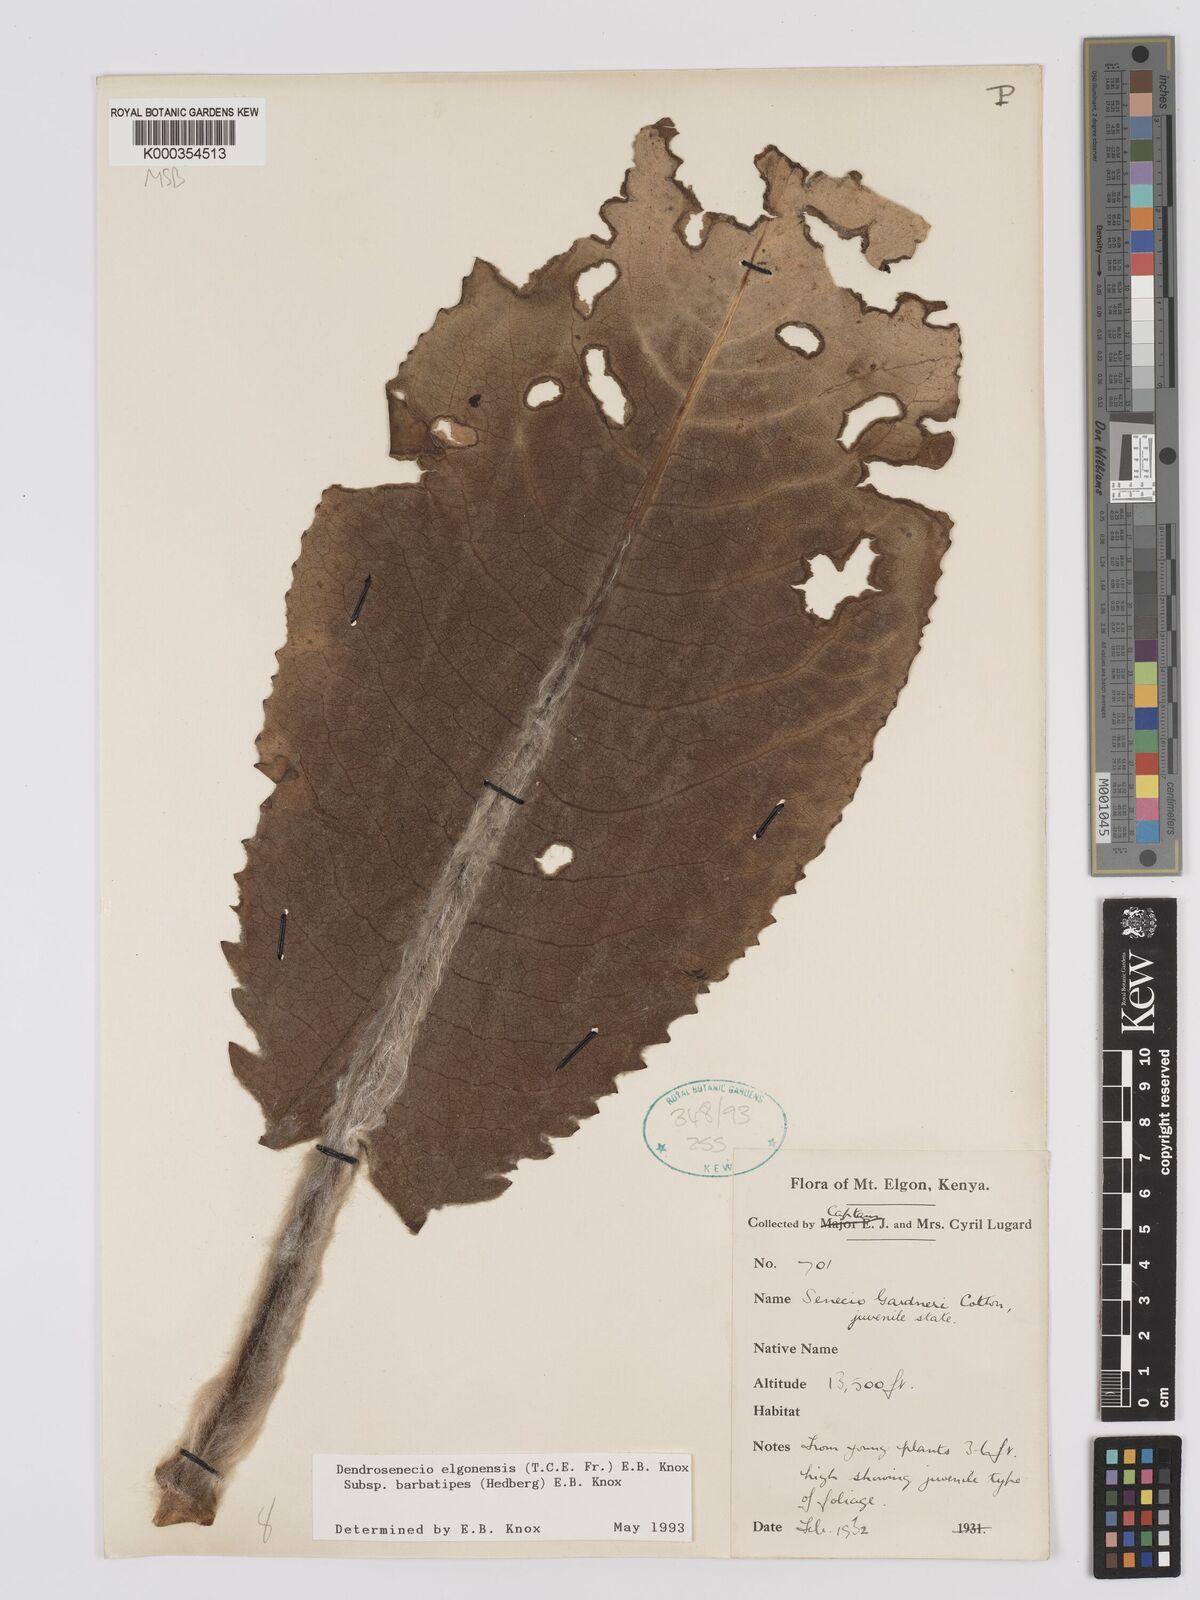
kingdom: Plantae
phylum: Tracheophyta
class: Magnoliopsida
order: Asterales
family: Asteraceae
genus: Dendrosenecio
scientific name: Dendrosenecio elgonensis
